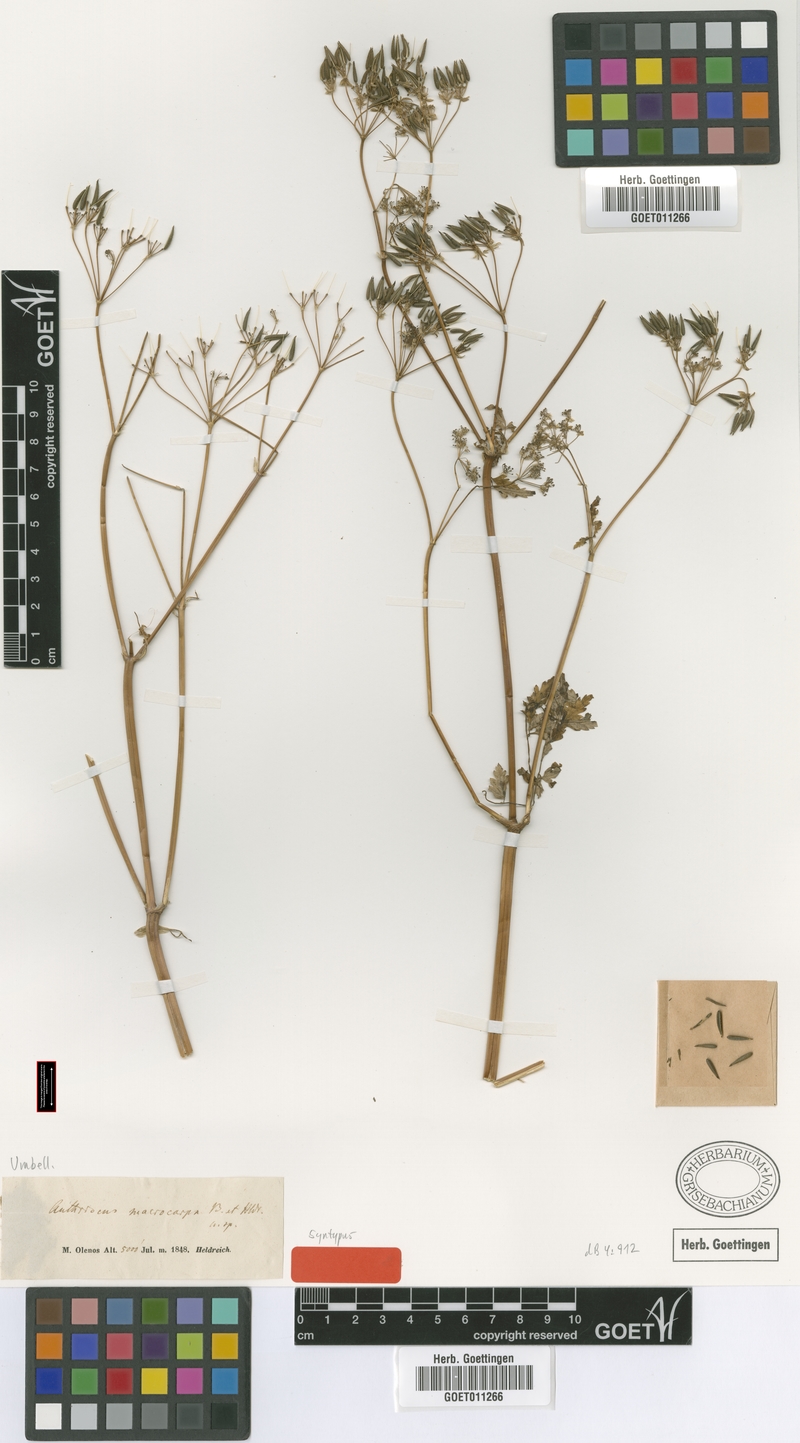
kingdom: Plantae
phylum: Tracheophyta
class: Magnoliopsida
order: Apiales
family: Apiaceae
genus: Anthriscus
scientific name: Anthriscus sylvestris
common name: Cow parsley
